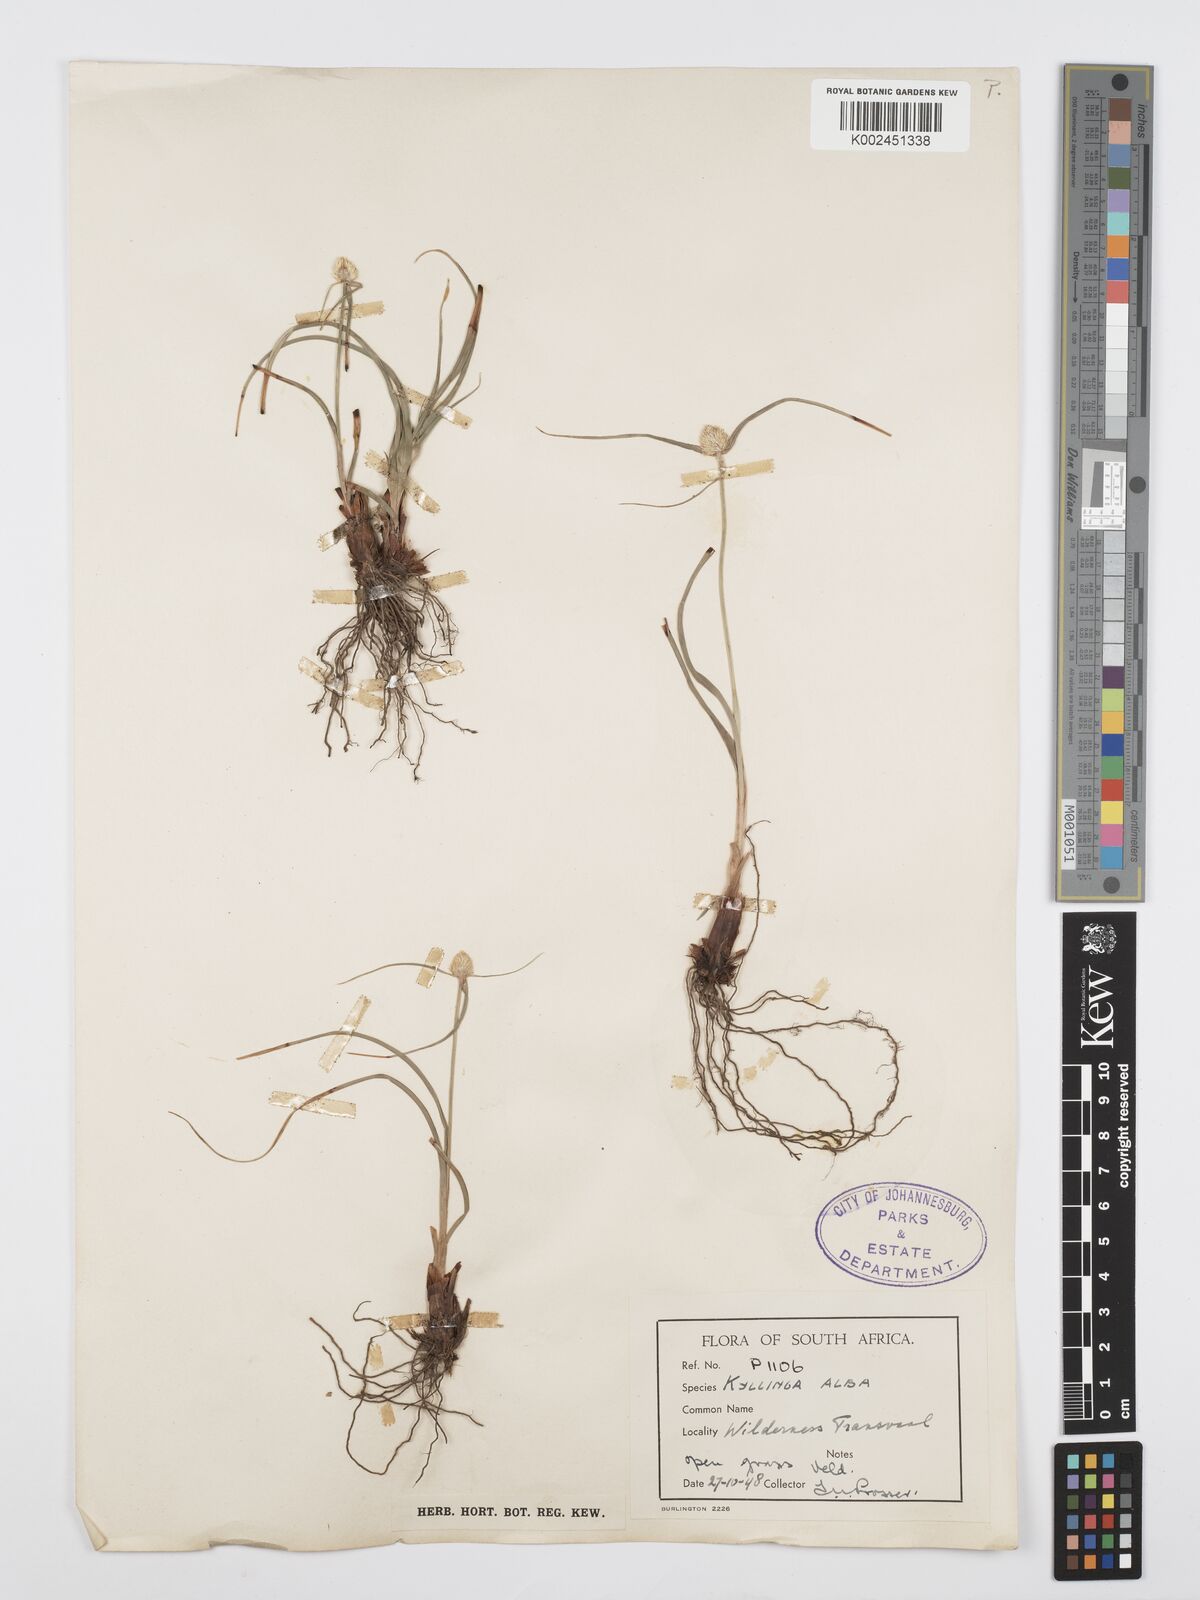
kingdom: Plantae
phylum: Tracheophyta
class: Liliopsida
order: Poales
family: Cyperaceae
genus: Cyperus
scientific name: Cyperus
